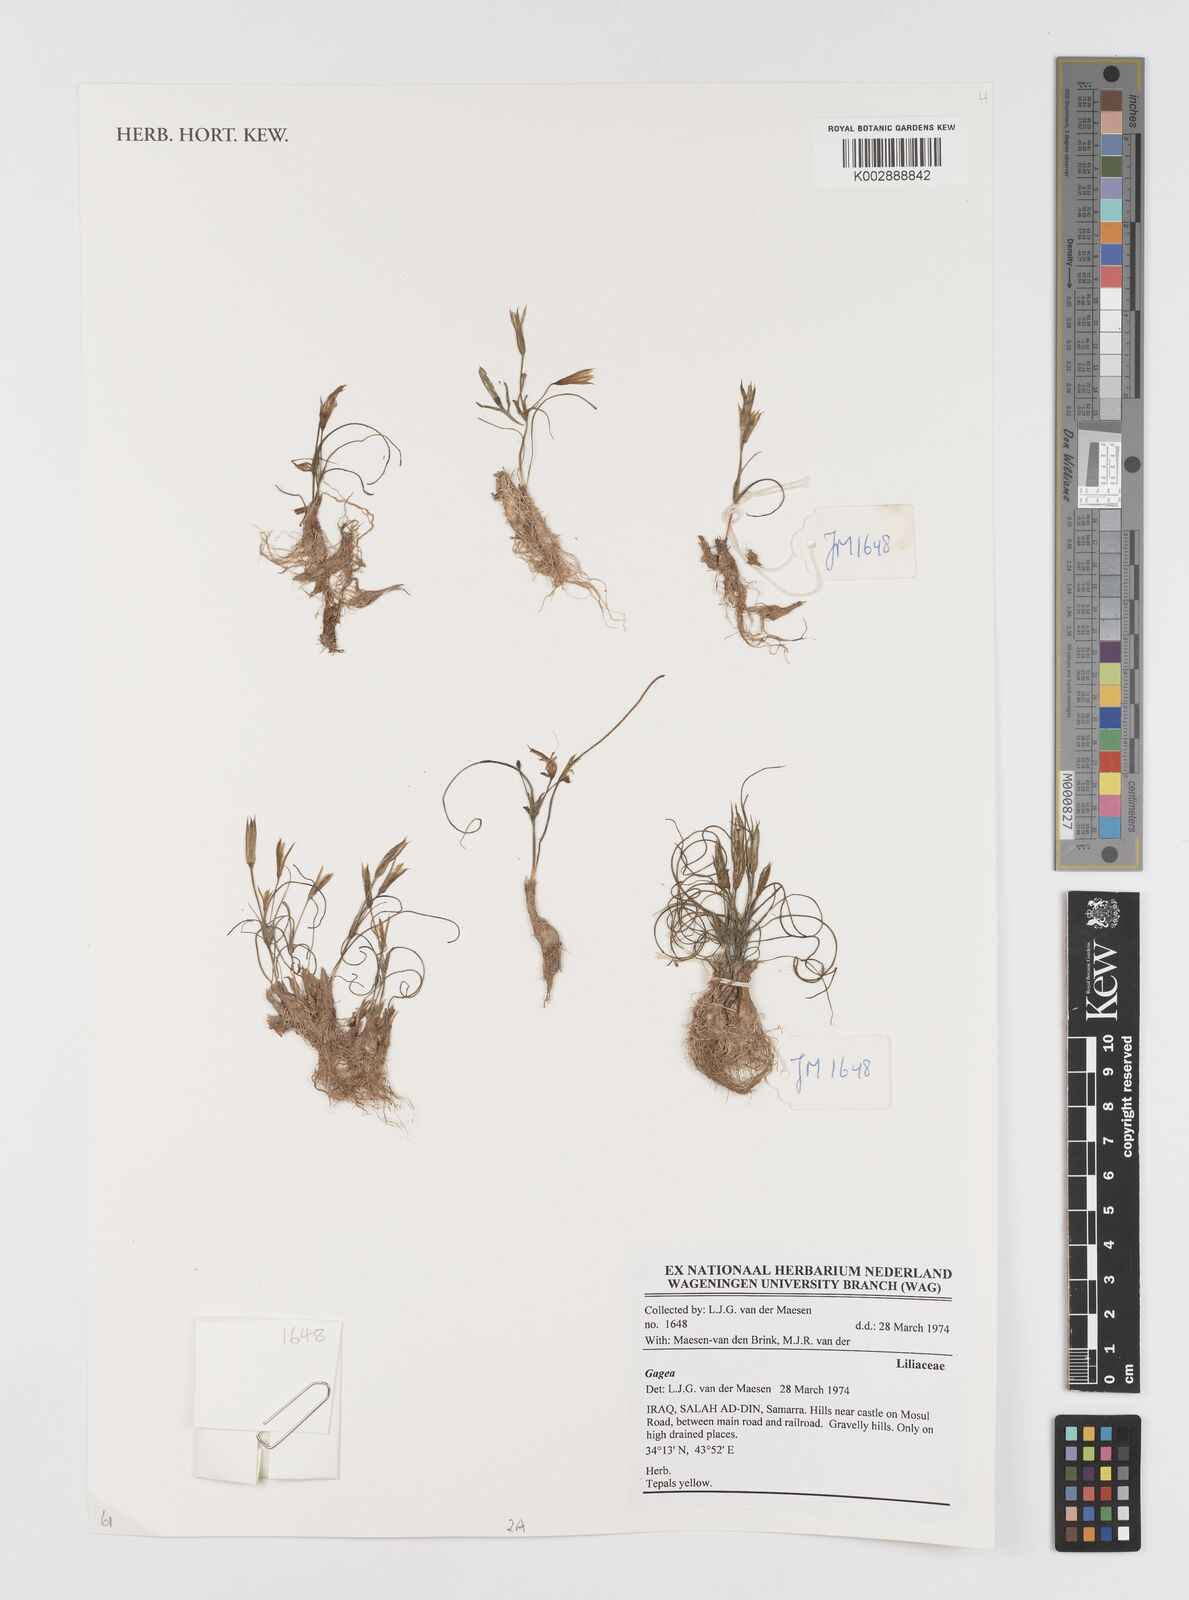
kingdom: Plantae
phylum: Tracheophyta
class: Liliopsida
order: Liliales
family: Liliaceae
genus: Gagea
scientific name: Gagea
